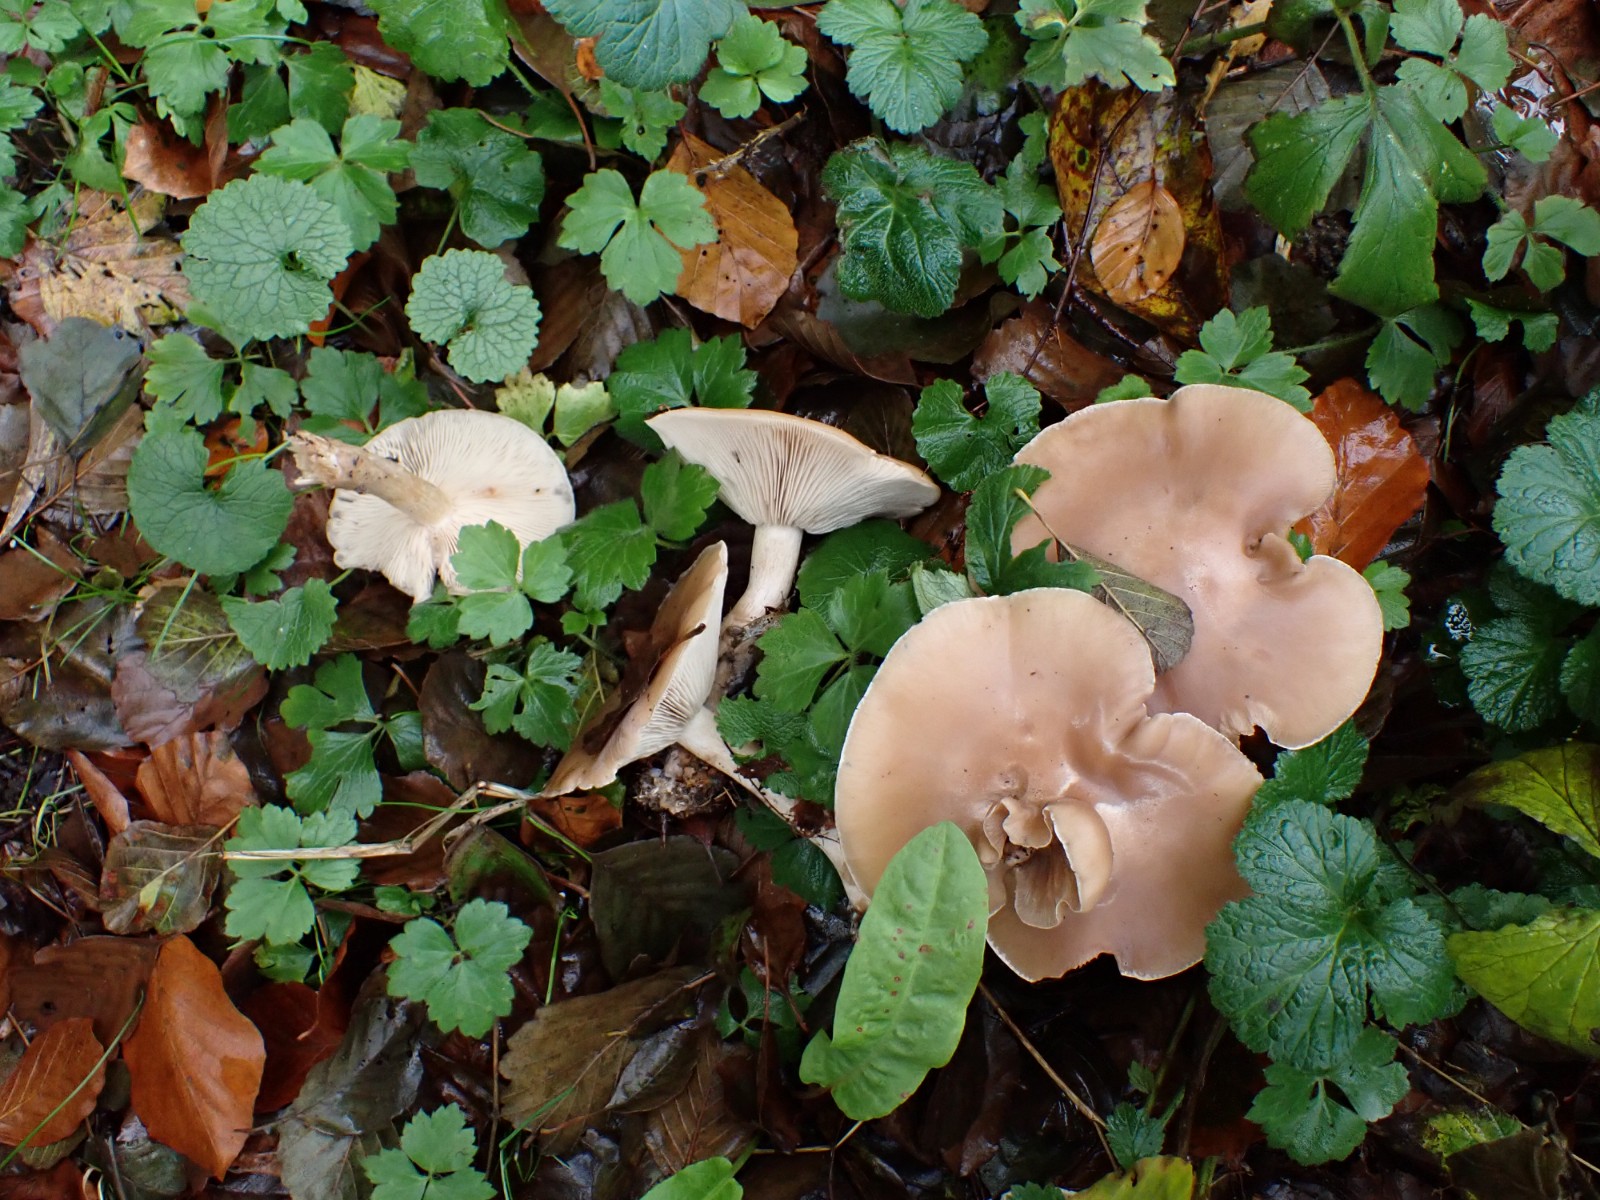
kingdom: Fungi
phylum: Basidiomycota
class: Agaricomycetes
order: Agaricales
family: Tricholomataceae
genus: Lepista
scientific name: Lepista personata
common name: bleg hekseringshat
